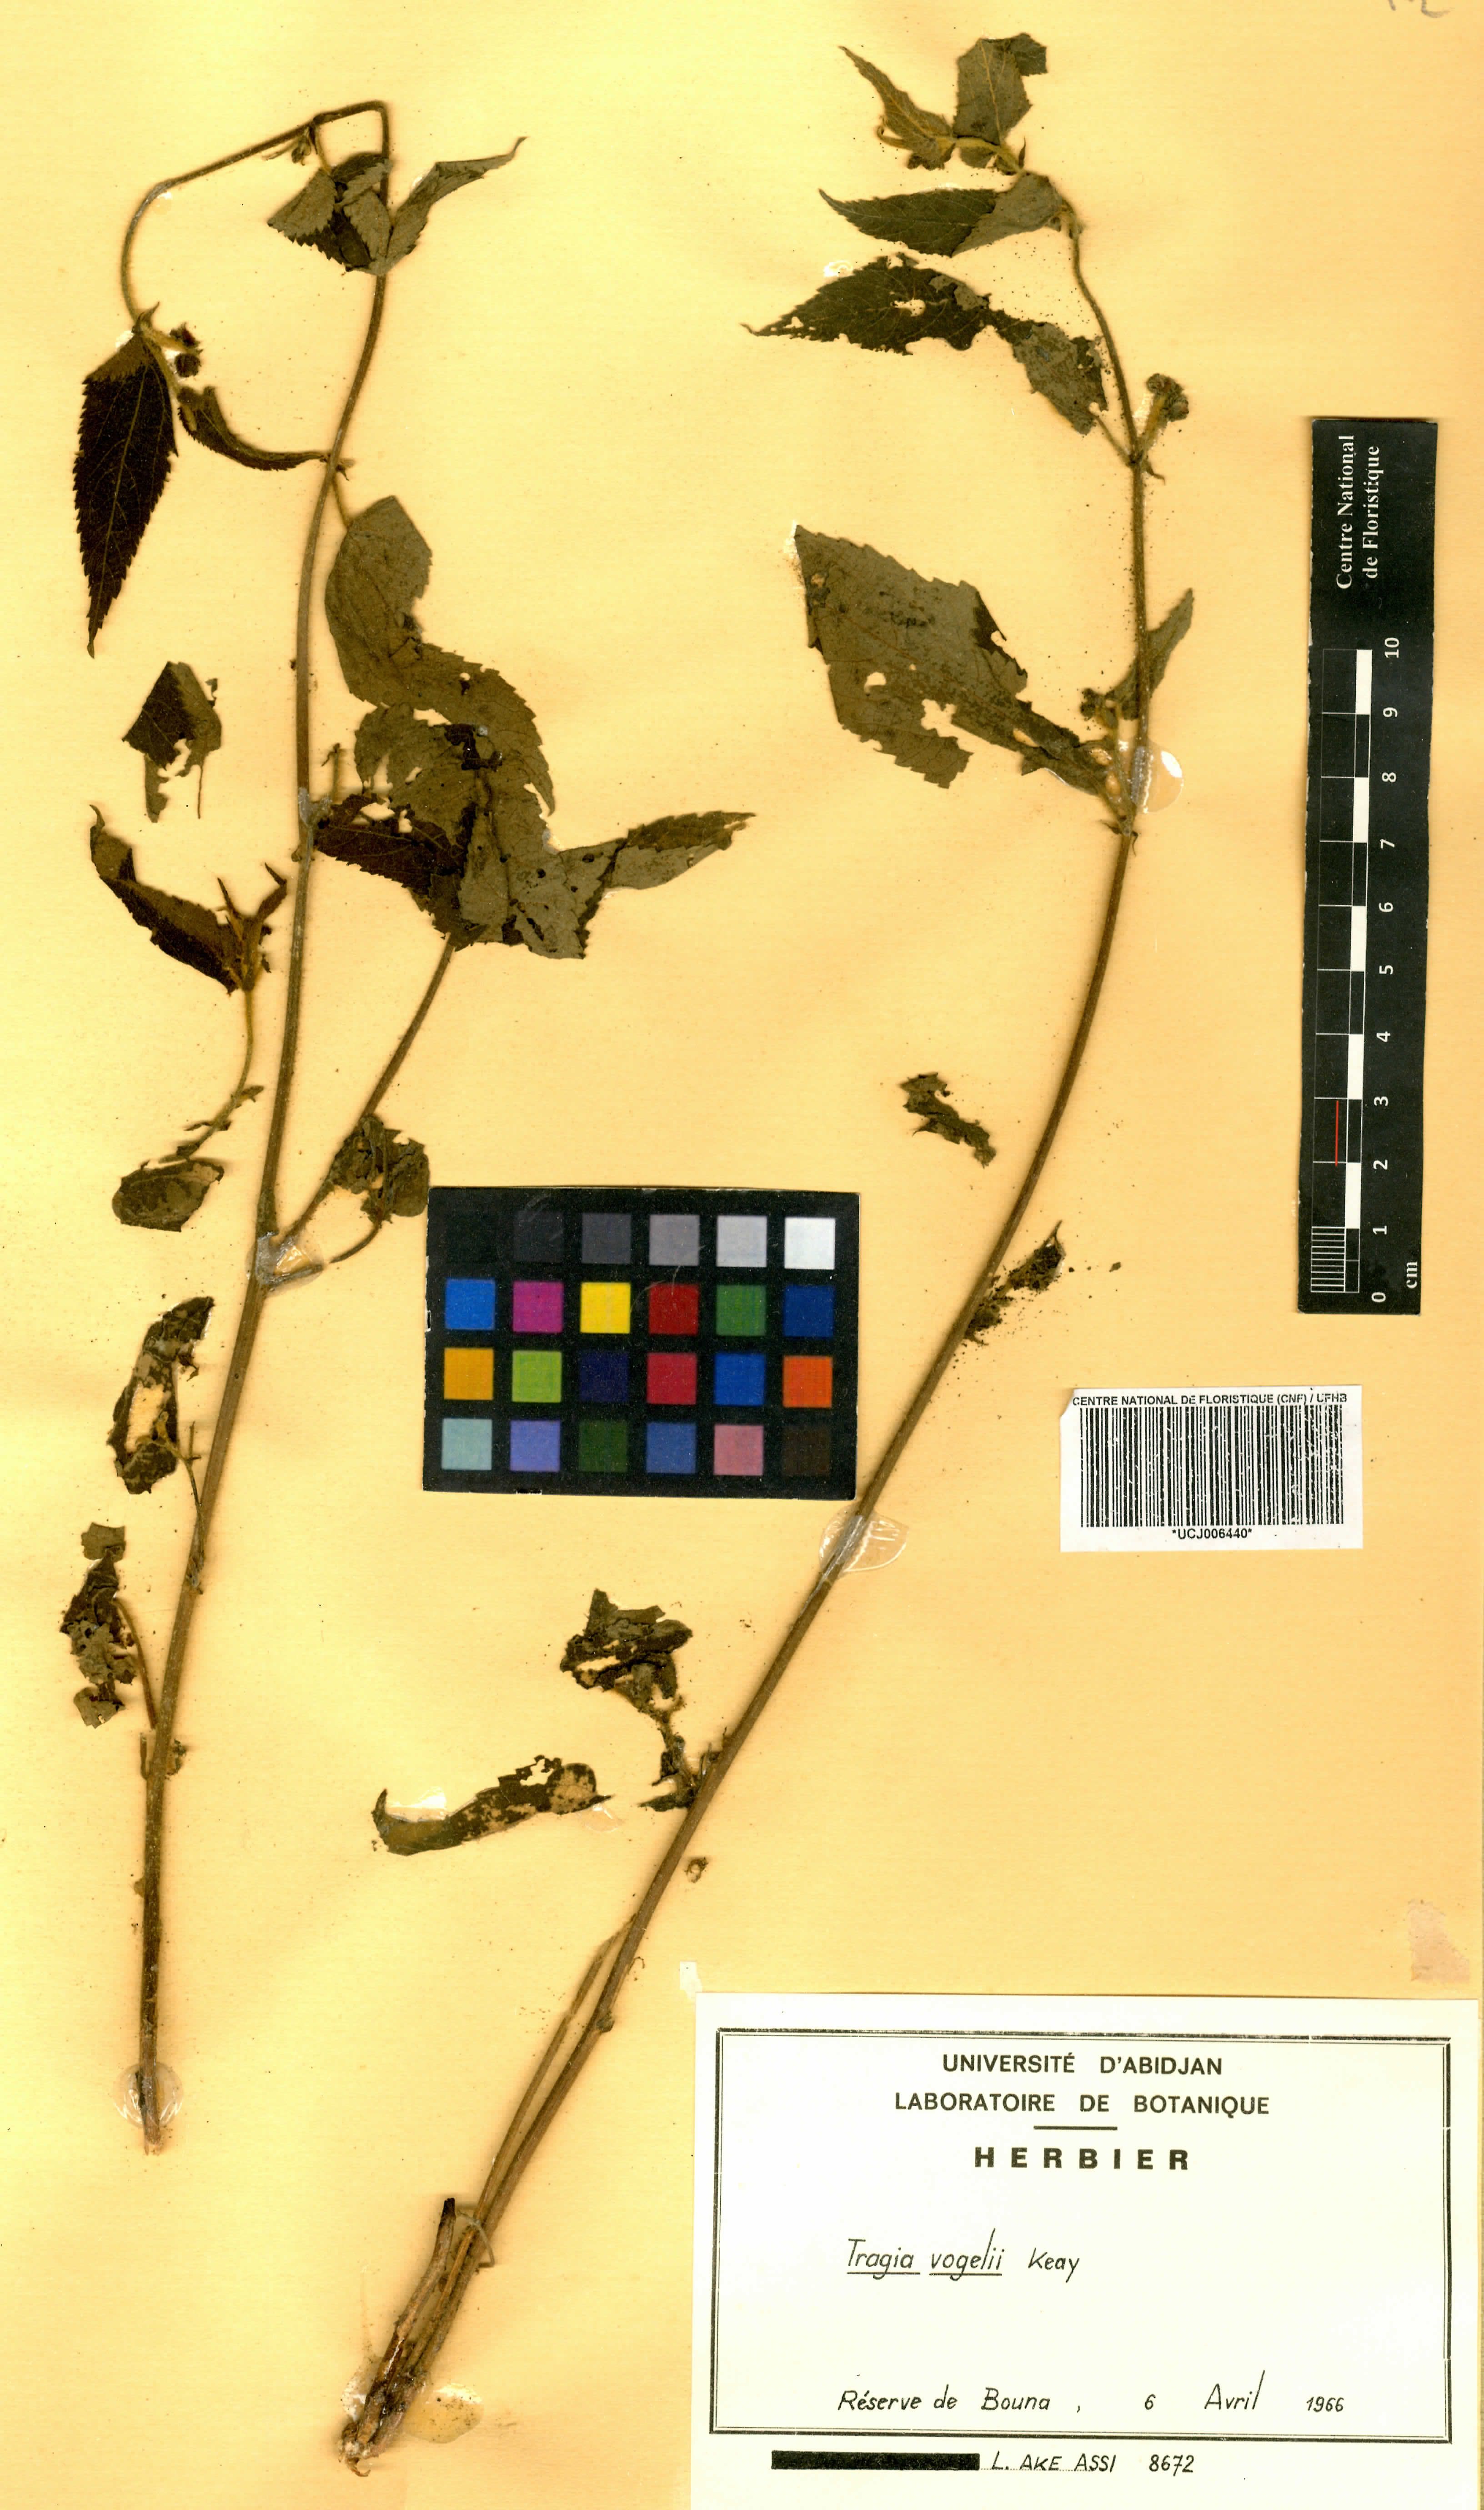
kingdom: Plantae
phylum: Tracheophyta
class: Magnoliopsida
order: Malpighiales
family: Euphorbiaceae
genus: Tragia
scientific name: Tragia vogelii
